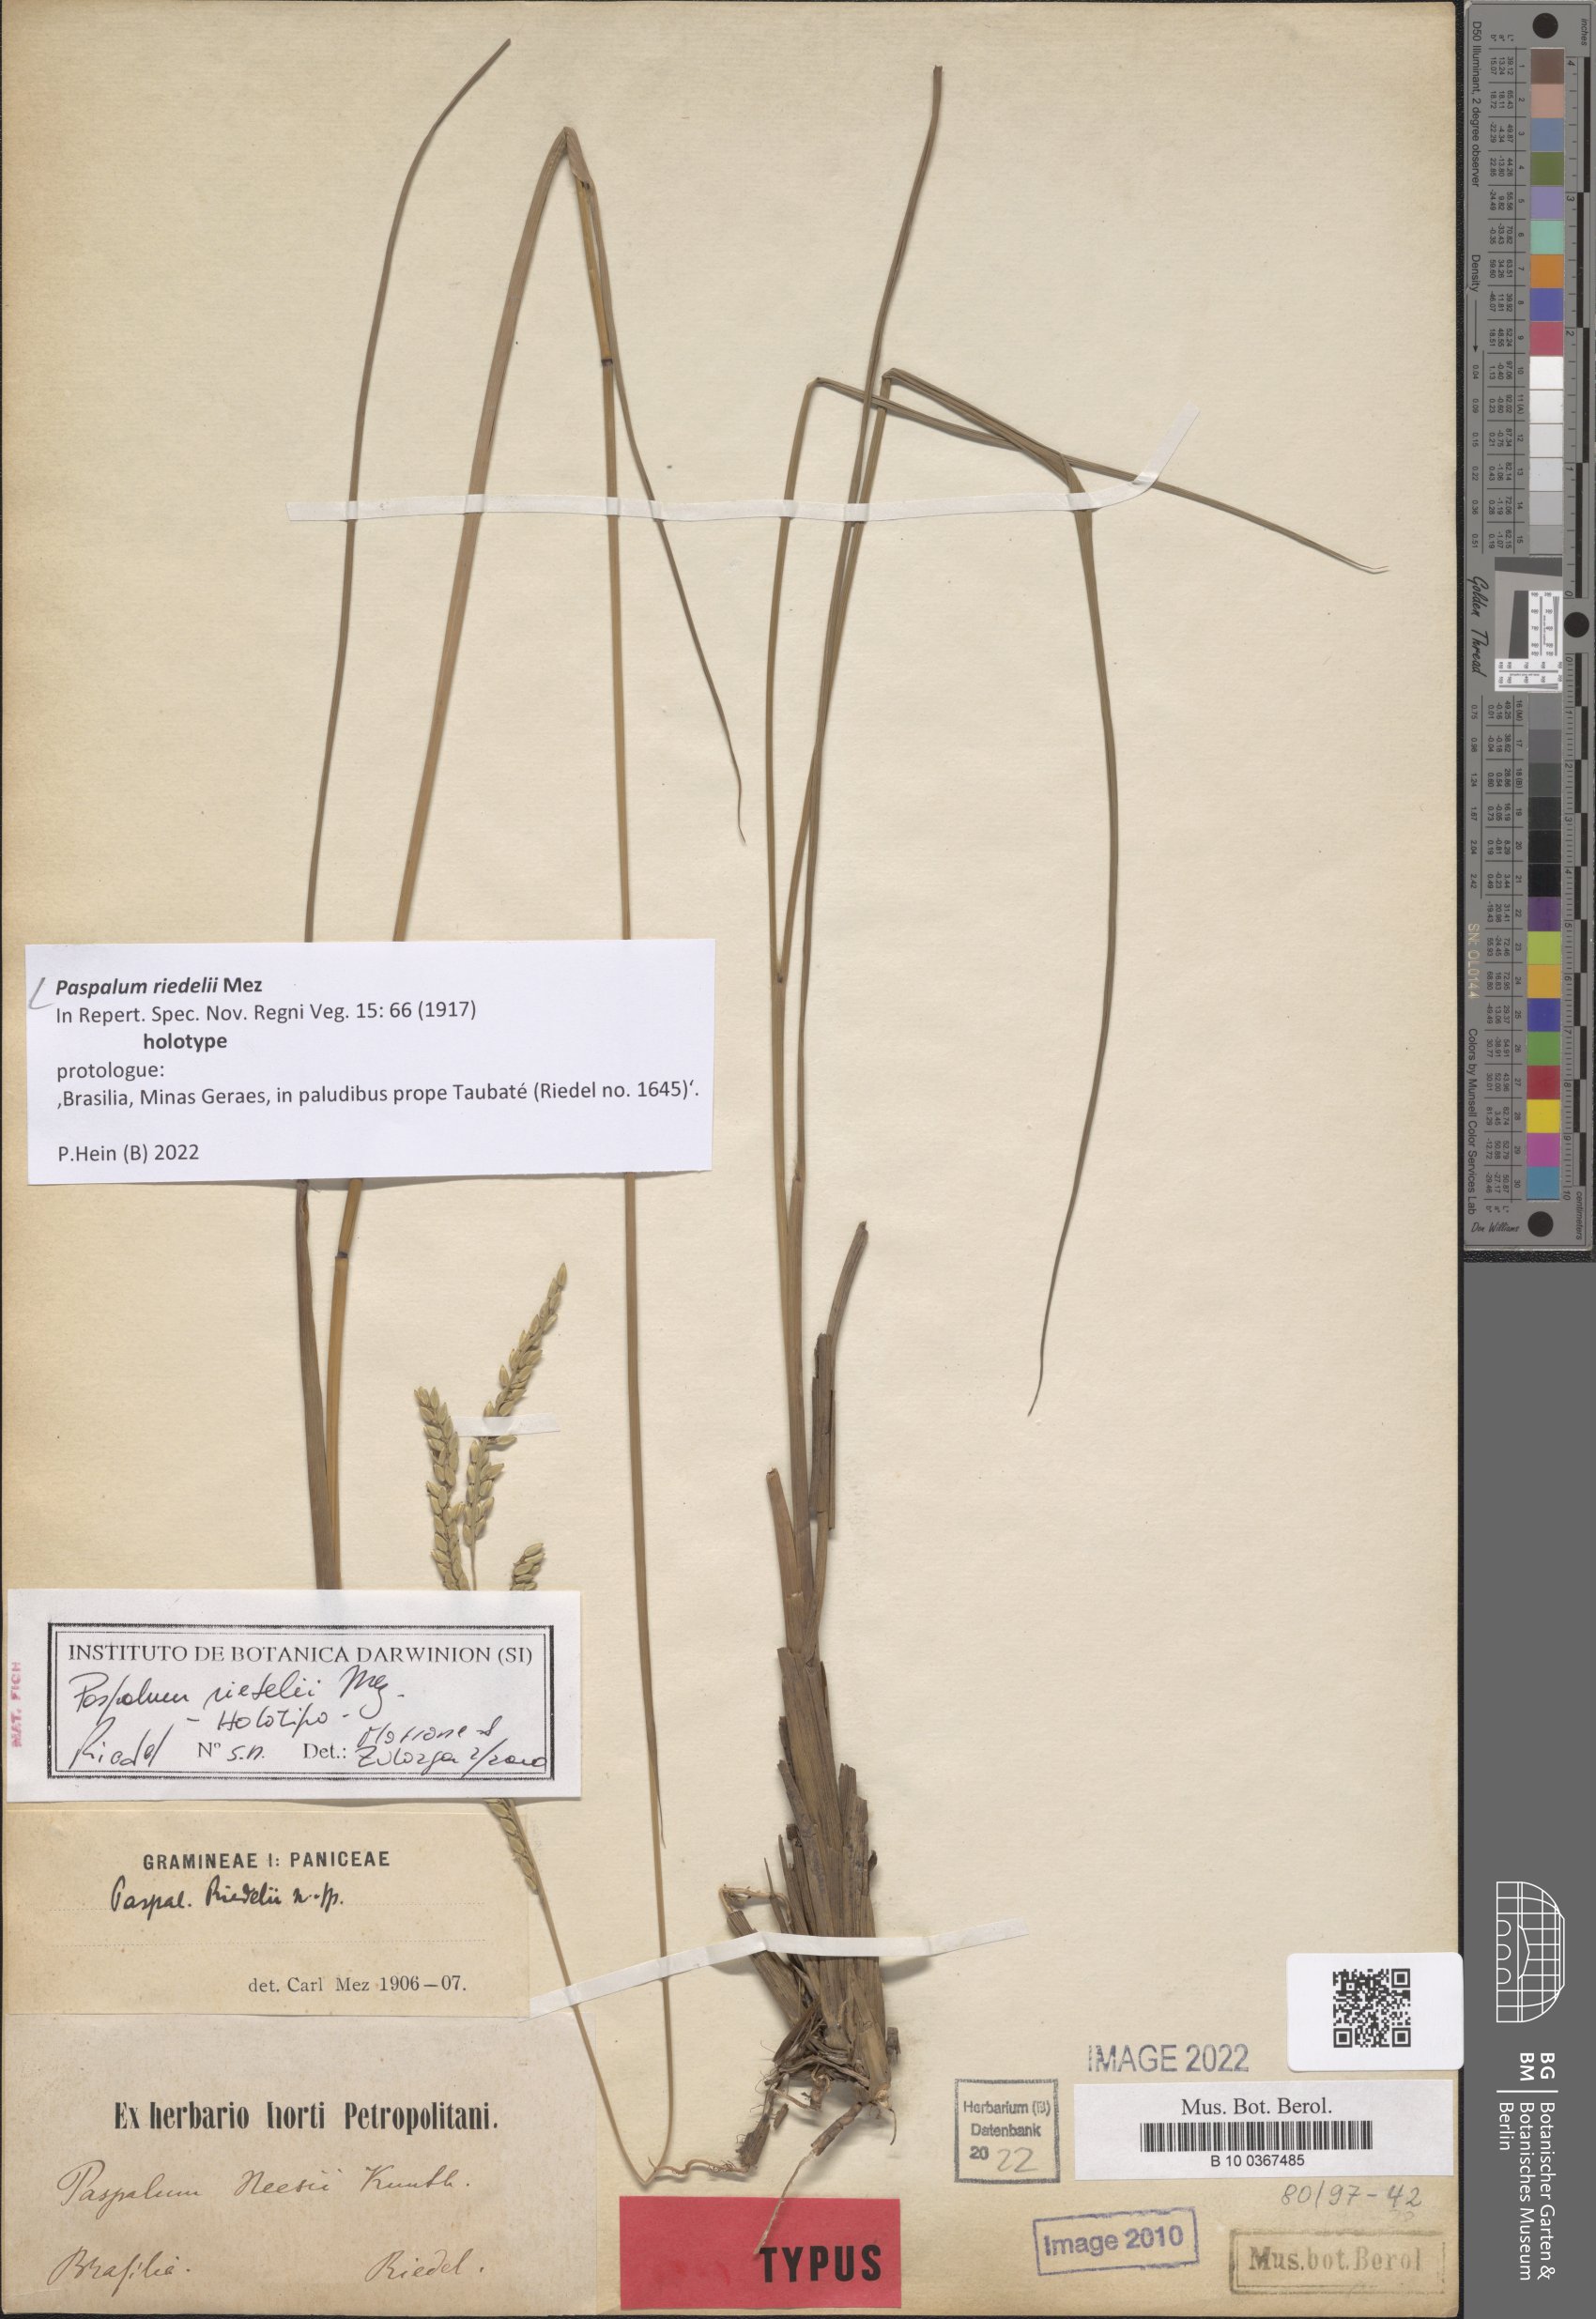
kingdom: Plantae
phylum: Tracheophyta
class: Liliopsida
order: Poales
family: Poaceae
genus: Paspalum
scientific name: Paspalum riedelii
